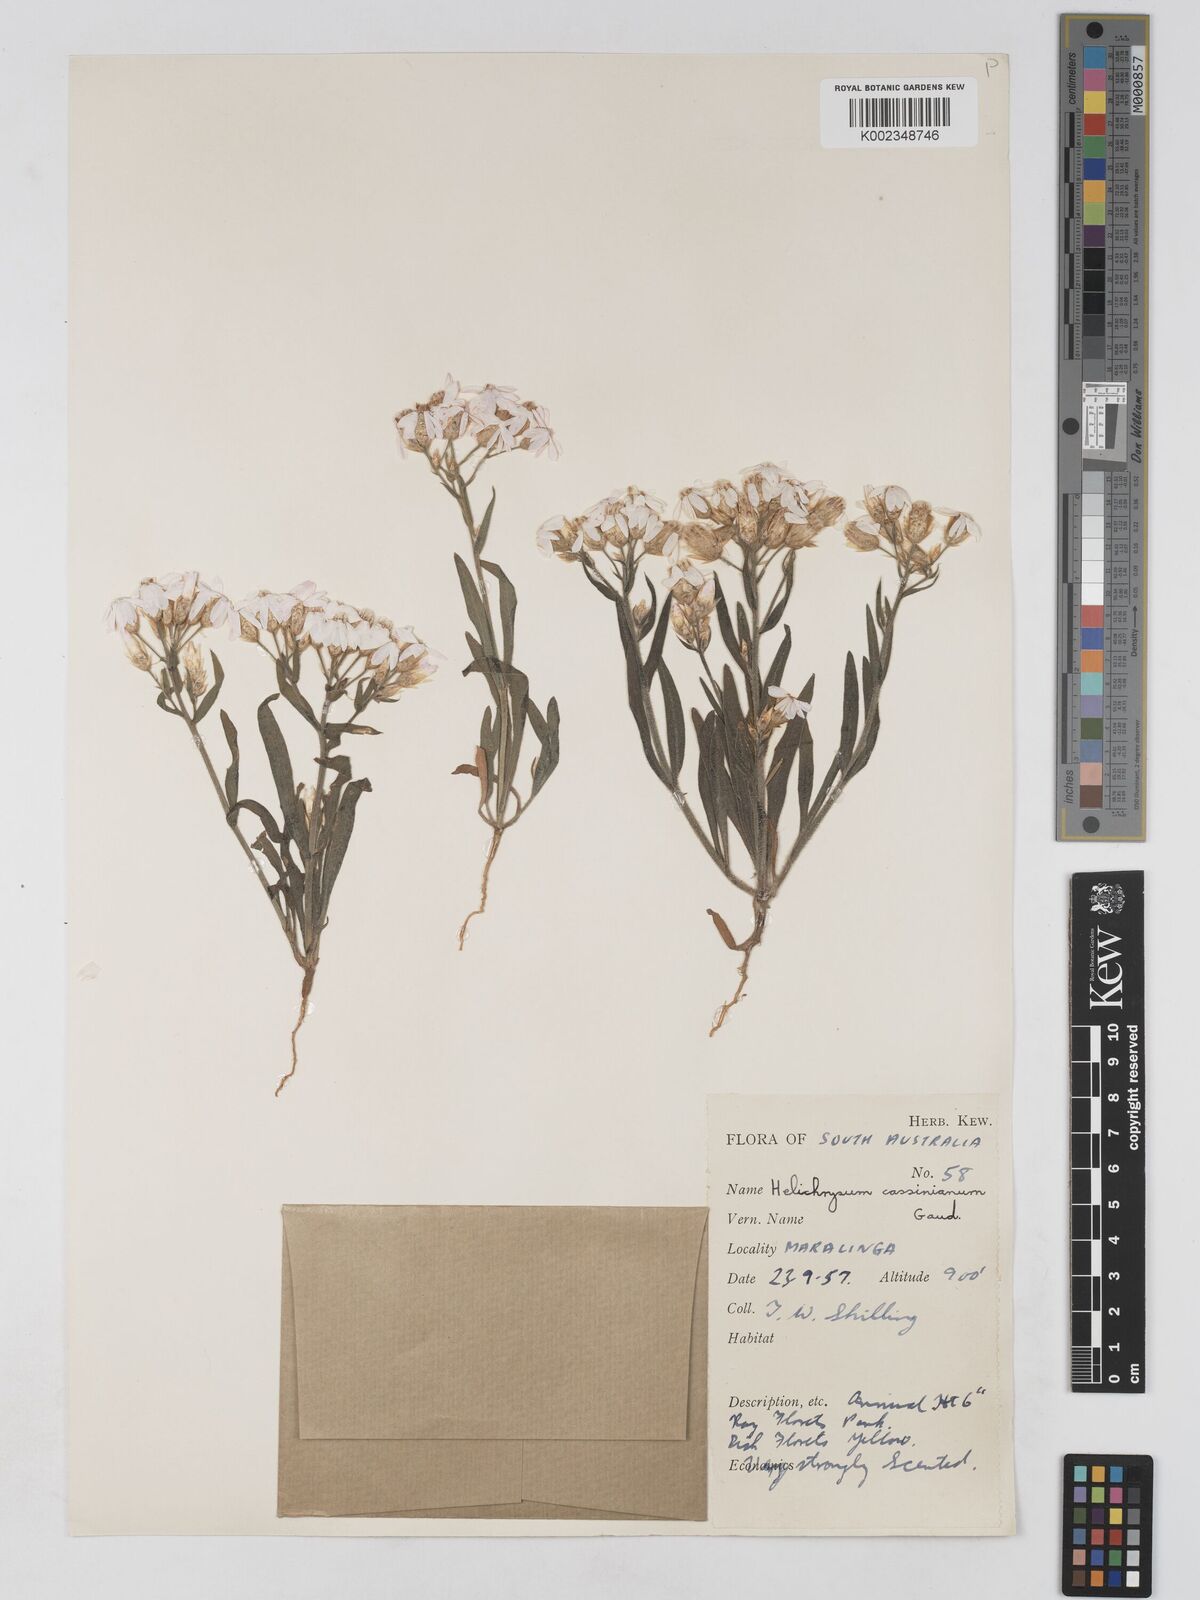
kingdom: Plantae
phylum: Tracheophyta
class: Magnoliopsida
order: Asterales
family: Asteraceae
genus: Schoenia
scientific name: Schoenia cassiniana
